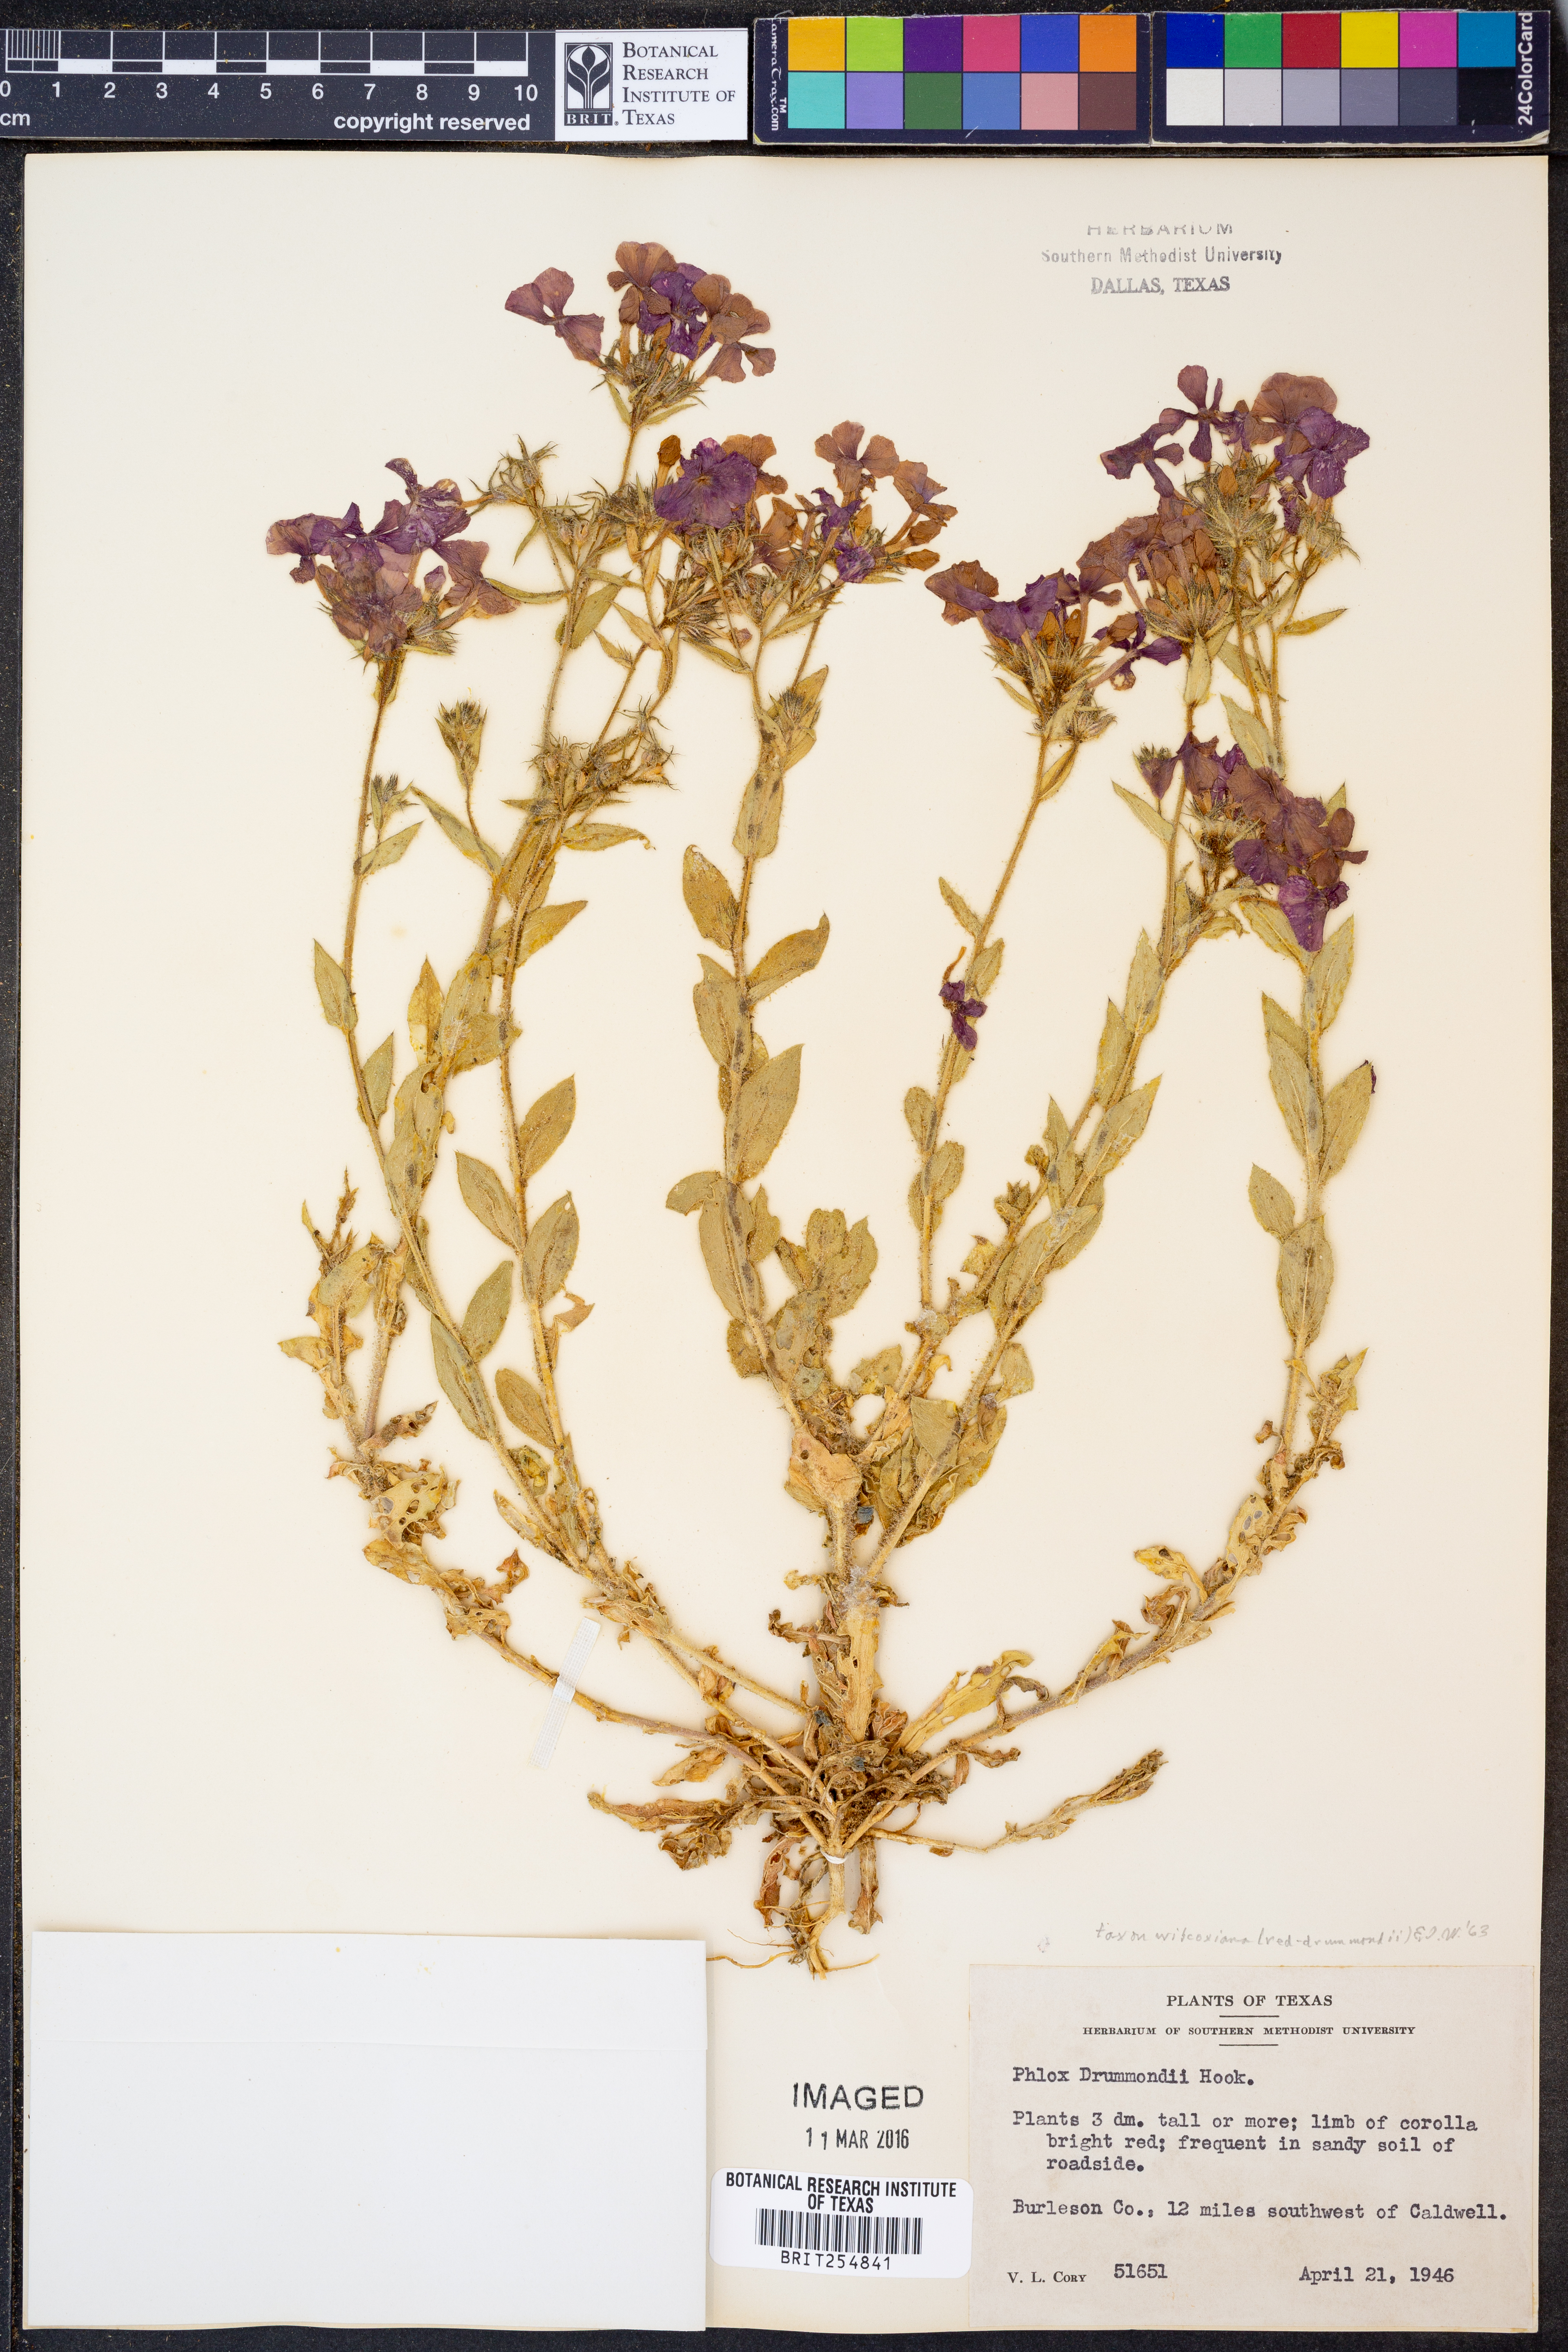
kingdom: Plantae
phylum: Tracheophyta
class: Magnoliopsida
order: Ericales
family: Polemoniaceae
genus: Phlox
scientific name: Phlox drummondii
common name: Drummond's phlox
